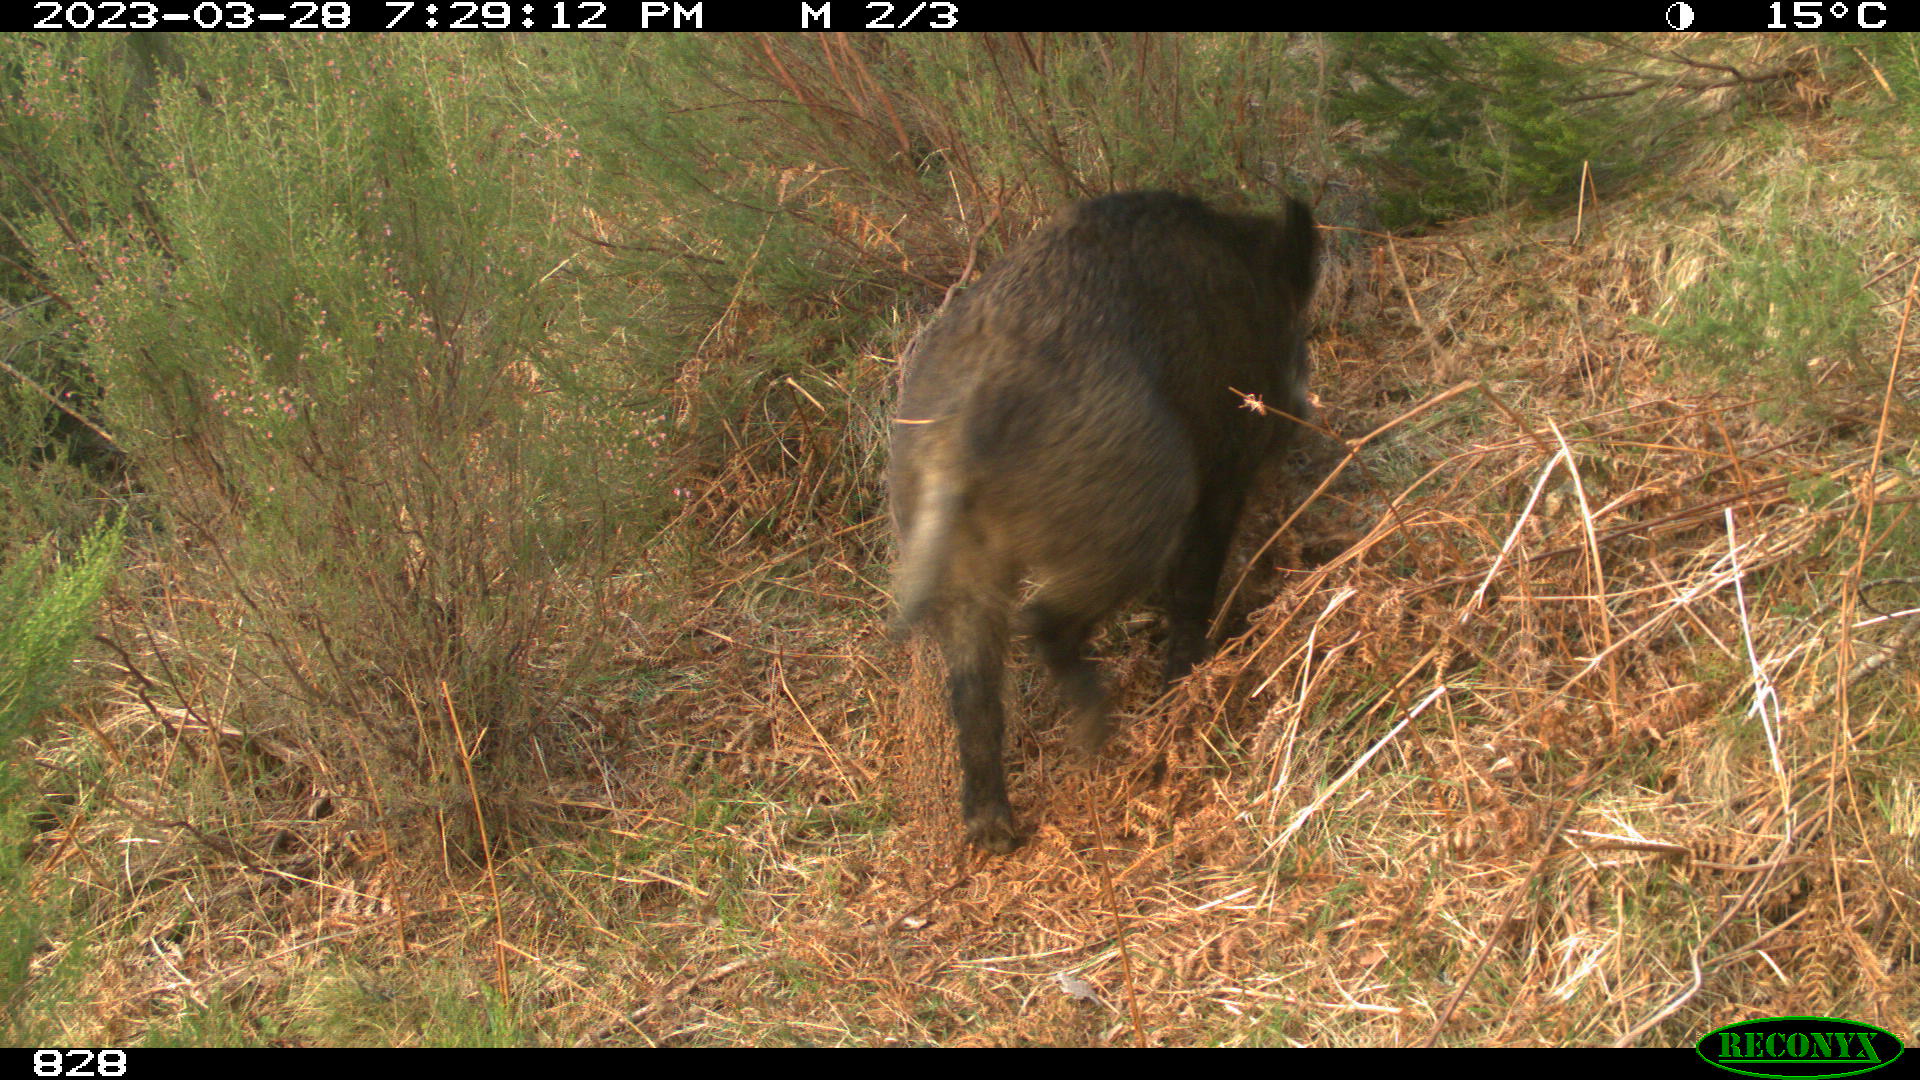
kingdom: Animalia
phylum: Chordata
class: Mammalia
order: Artiodactyla
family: Suidae
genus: Sus
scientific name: Sus scrofa
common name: Wild boar
